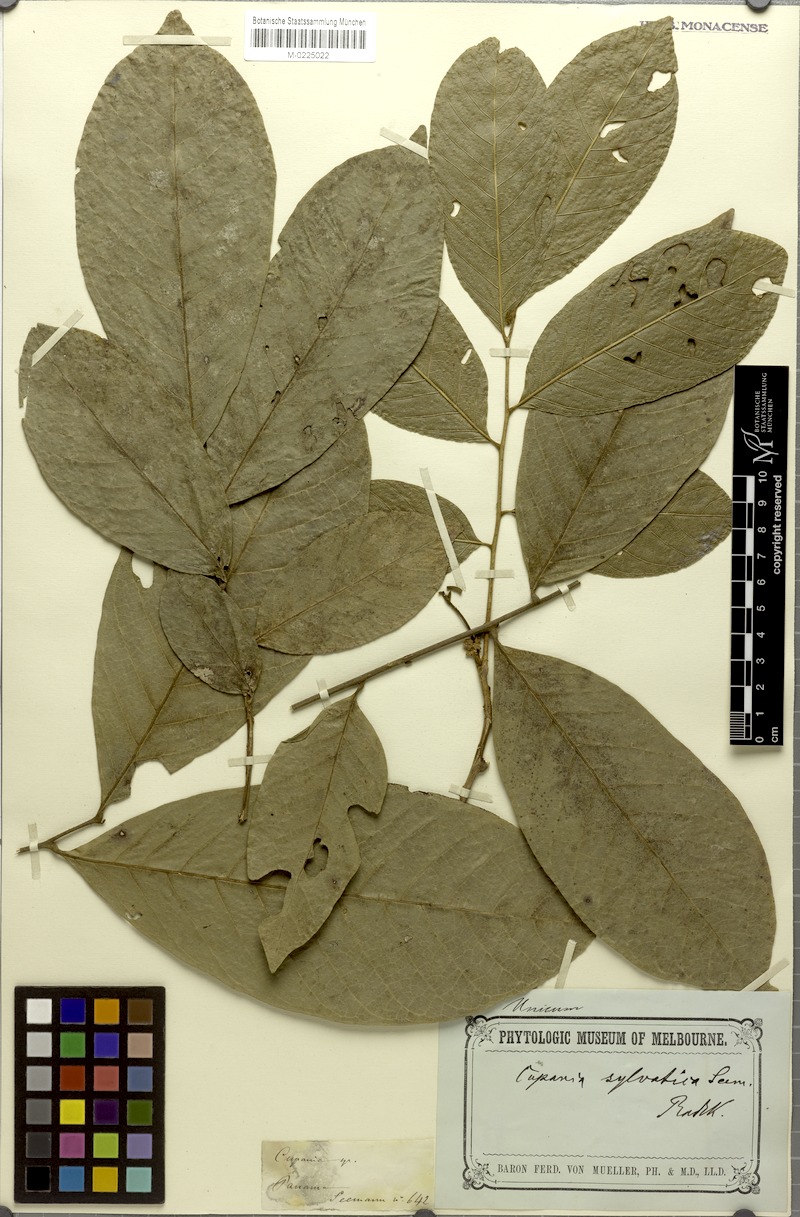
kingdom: Plantae
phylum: Tracheophyta
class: Magnoliopsida
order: Sapindales
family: Sapindaceae
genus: Cupania
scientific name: Cupania seemannii
